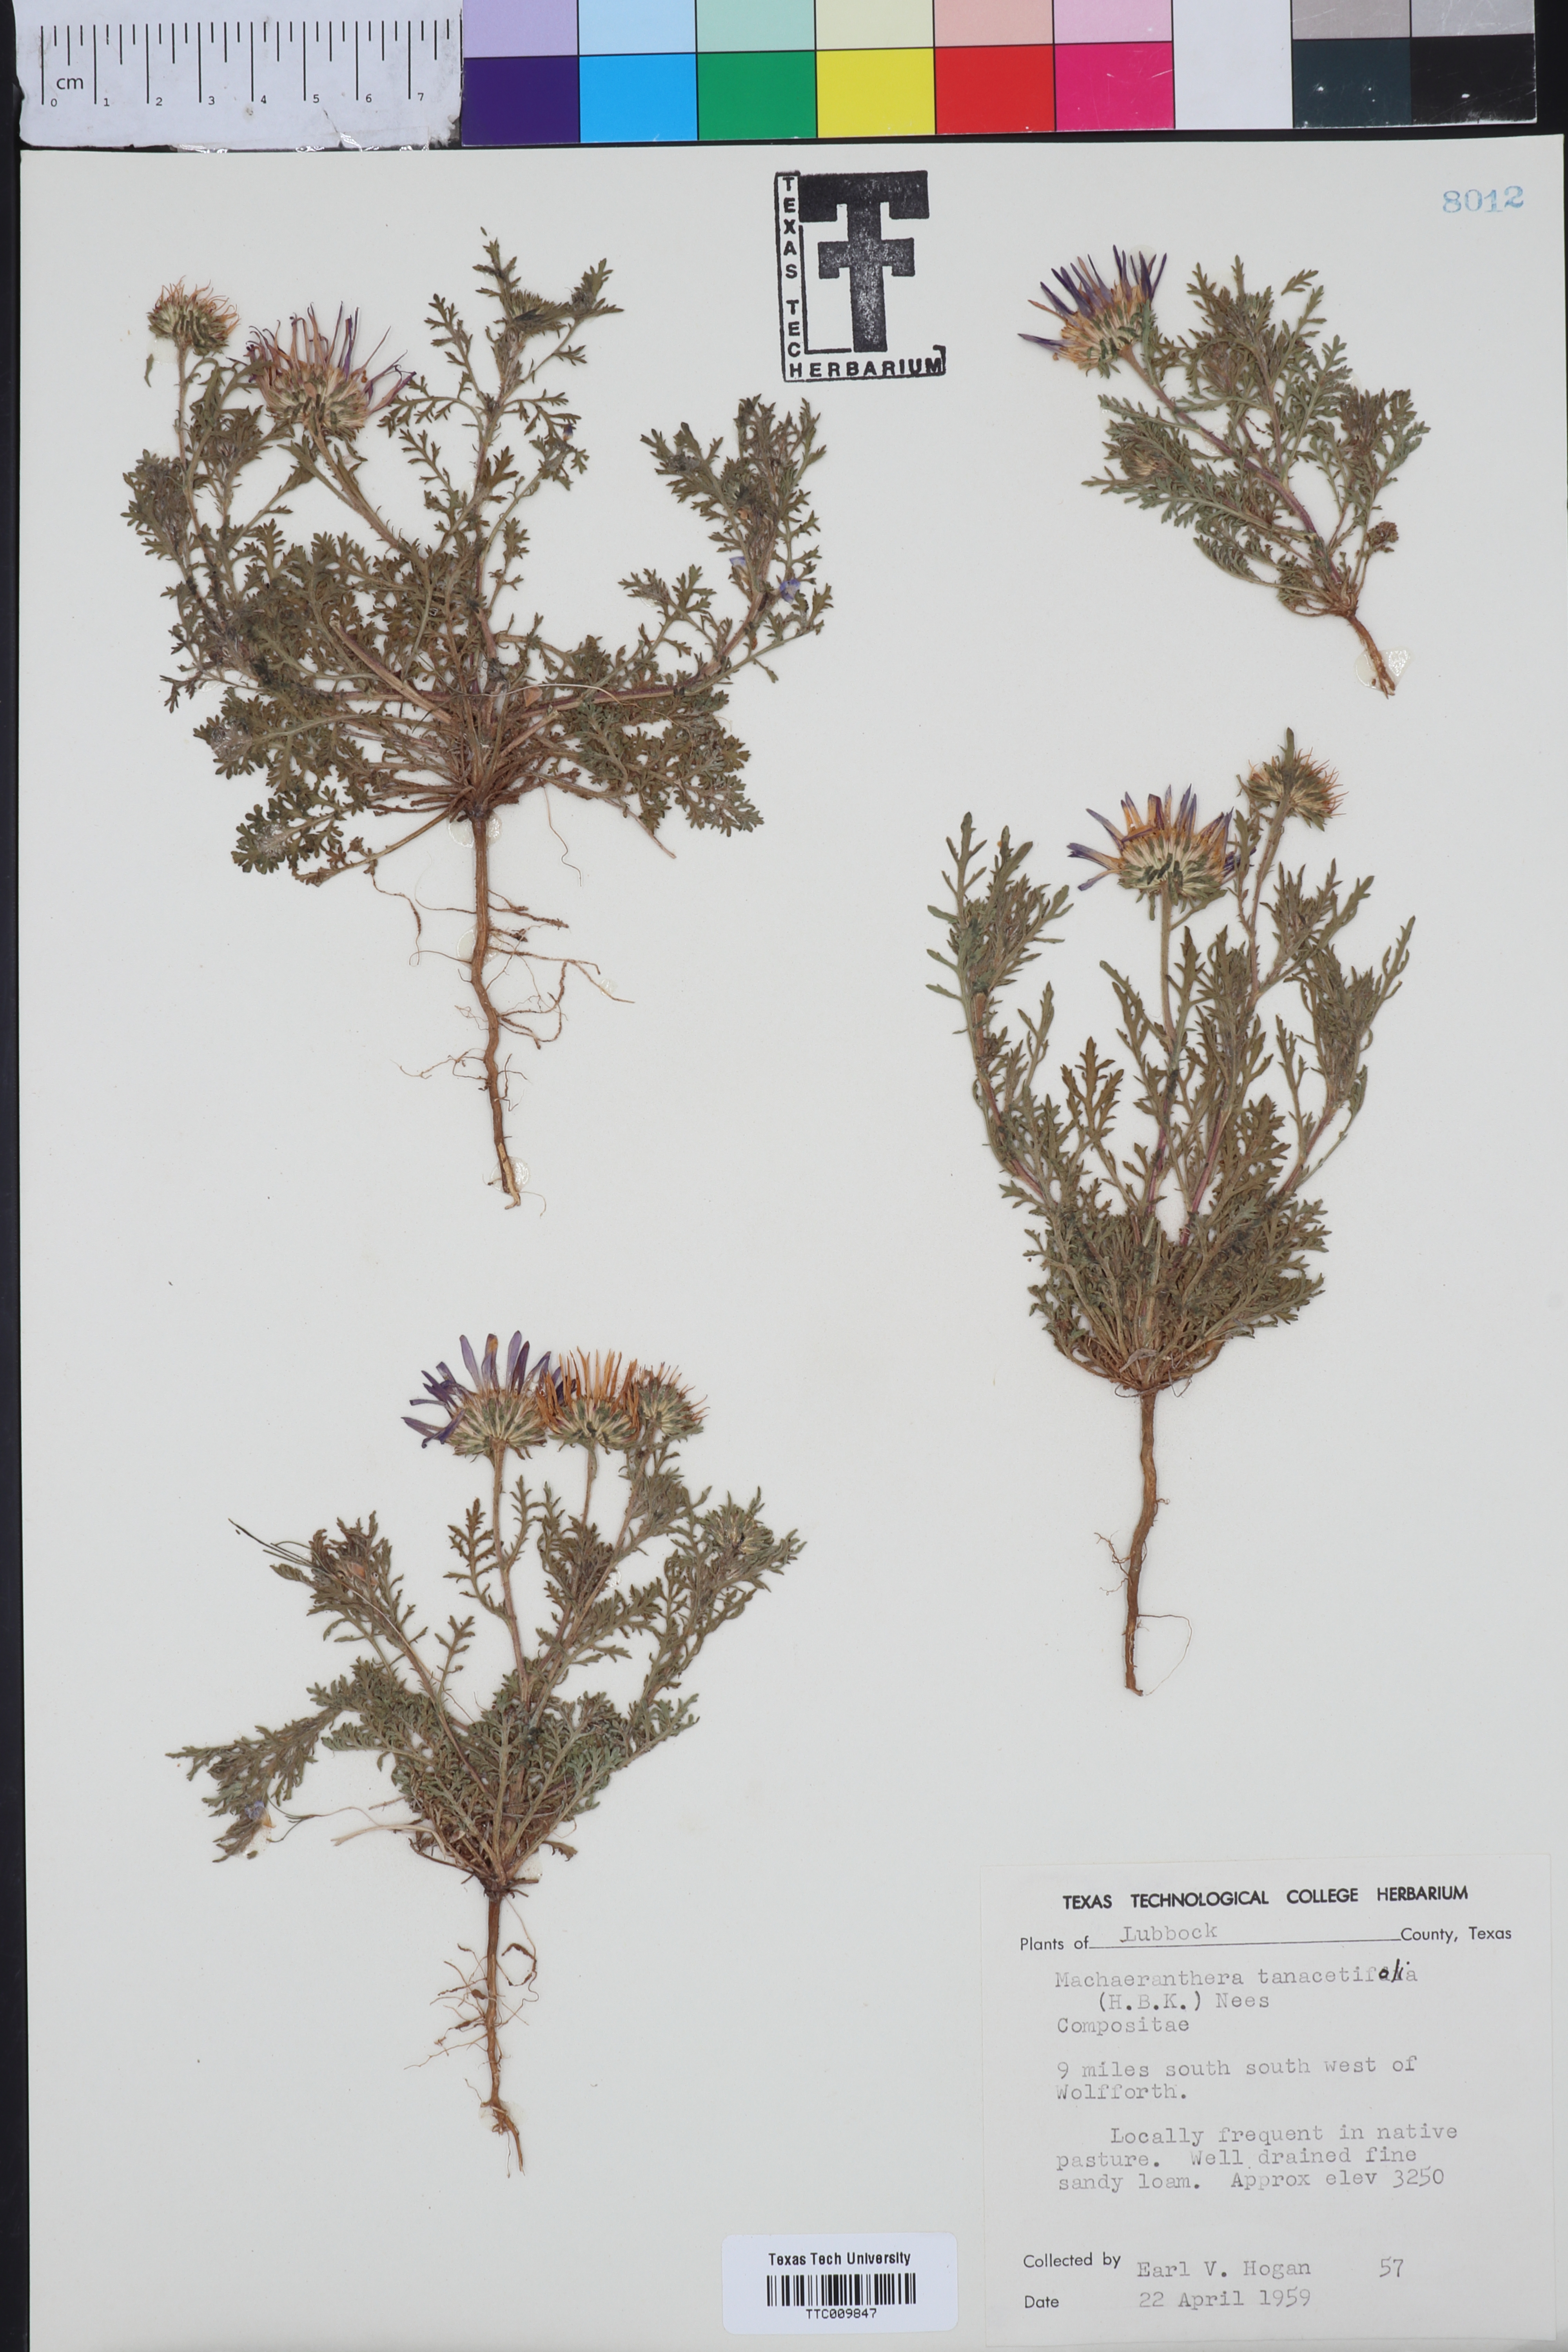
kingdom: Plantae
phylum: Tracheophyta
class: Magnoliopsida
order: Asterales
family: Asteraceae
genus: Machaeranthera
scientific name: Machaeranthera tanacetifolia
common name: Tansy-aster
